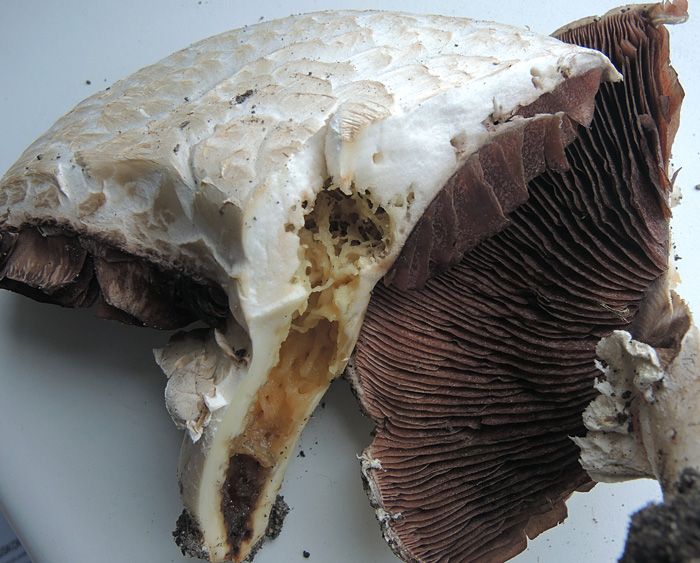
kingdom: Fungi
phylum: Basidiomycota
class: Agaricomycetes
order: Agaricales
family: Agaricaceae
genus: Agaricus
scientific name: Agaricus cappellii
